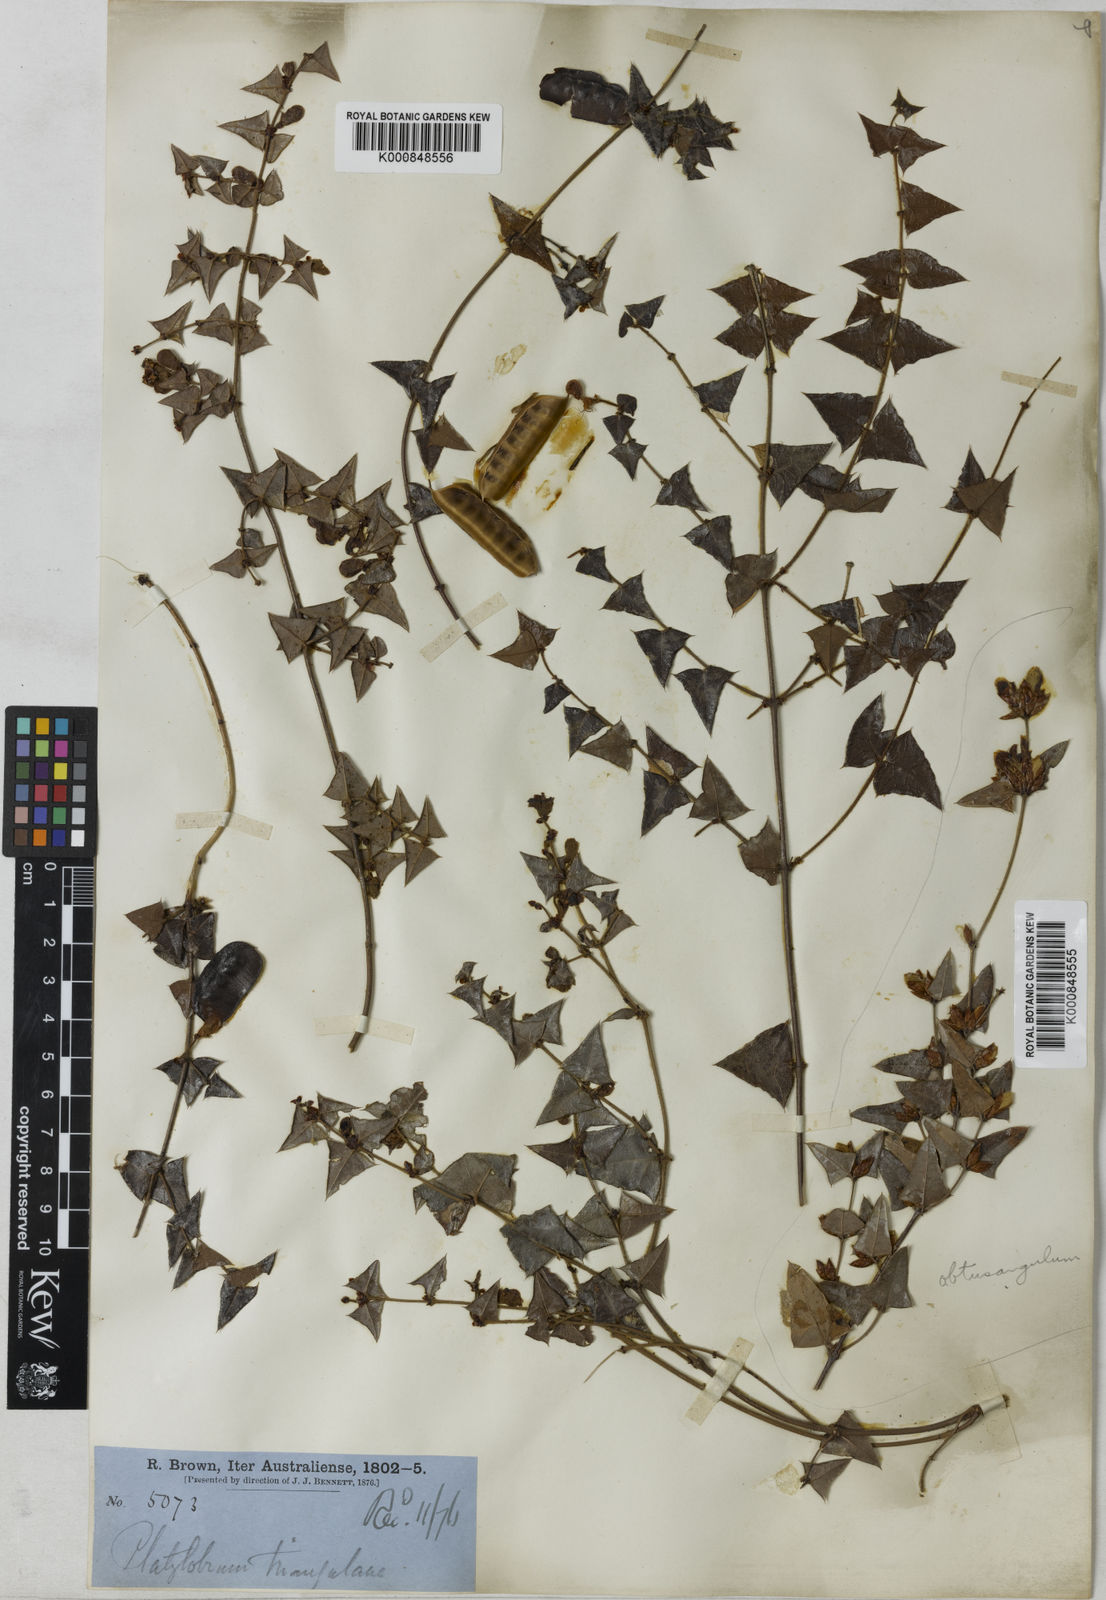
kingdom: Plantae
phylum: Tracheophyta
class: Magnoliopsida
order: Fabales
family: Fabaceae
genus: Platylobium
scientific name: Platylobium triangulare
